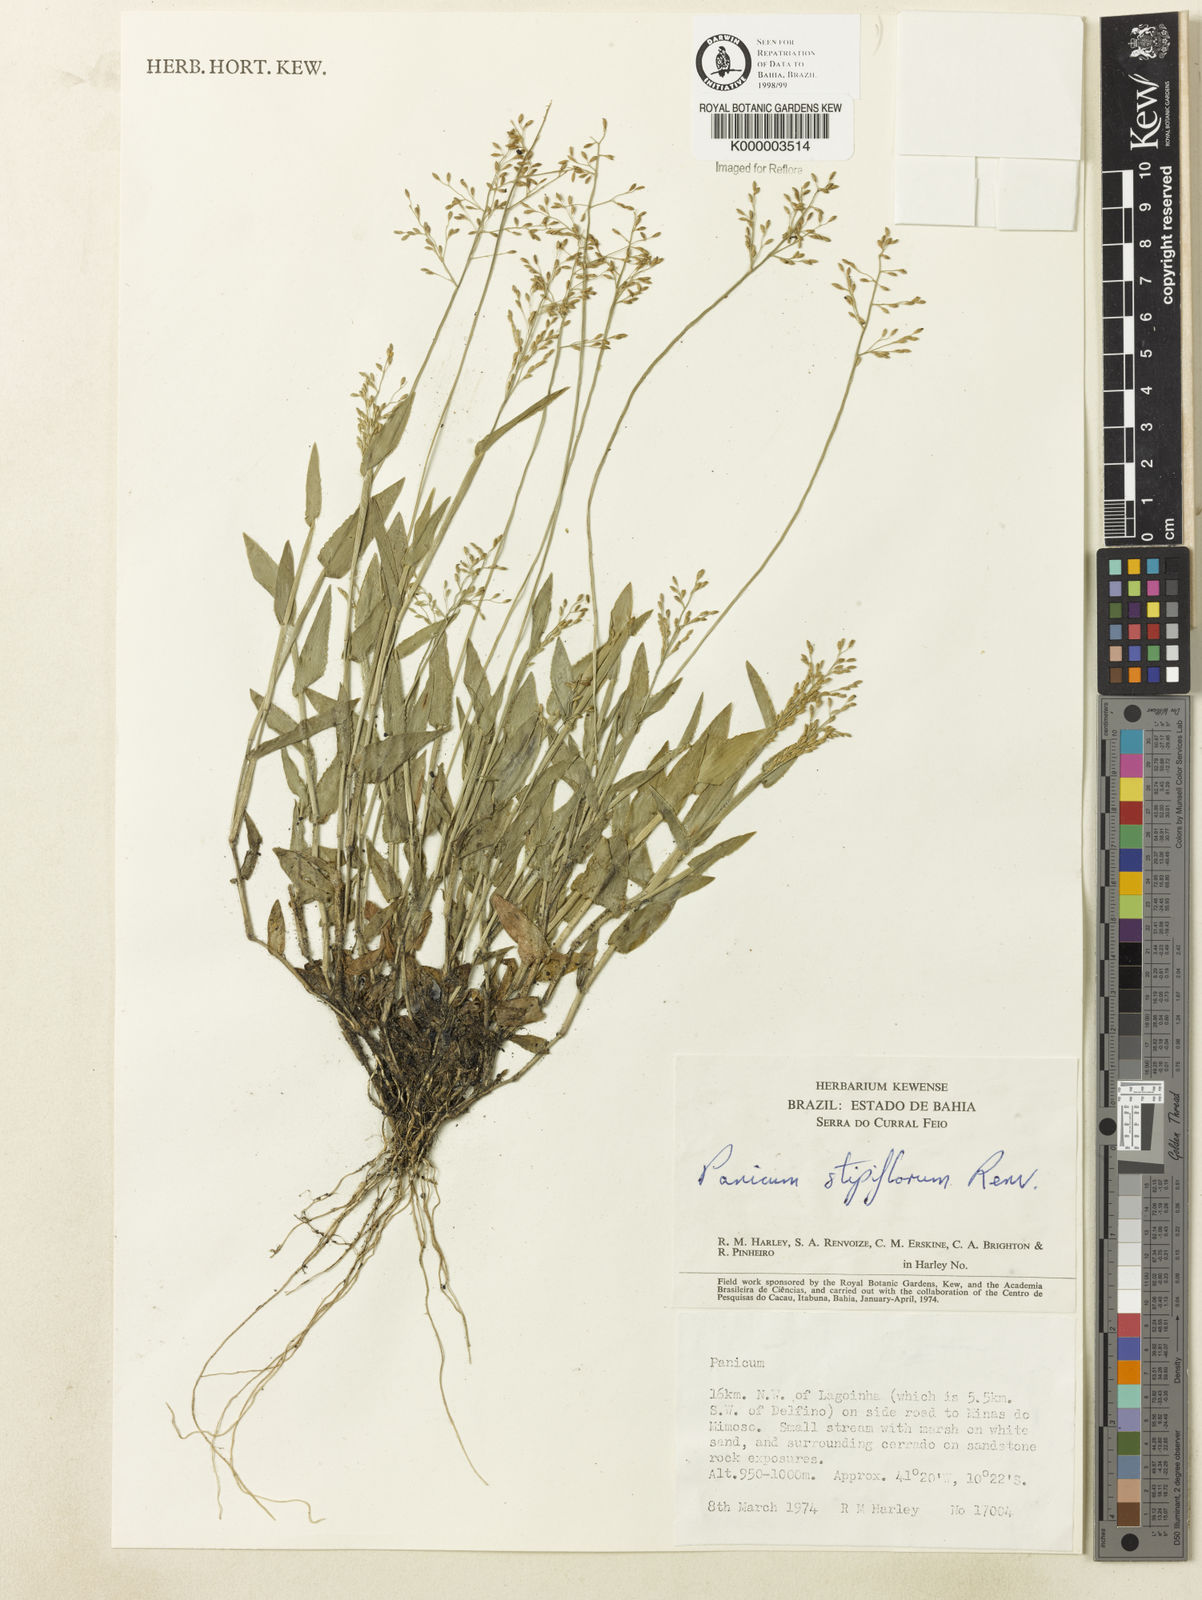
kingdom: Plantae
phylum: Tracheophyta
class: Liliopsida
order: Poales
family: Poaceae
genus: Dichanthelium
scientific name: Dichanthelium stipiflorum
